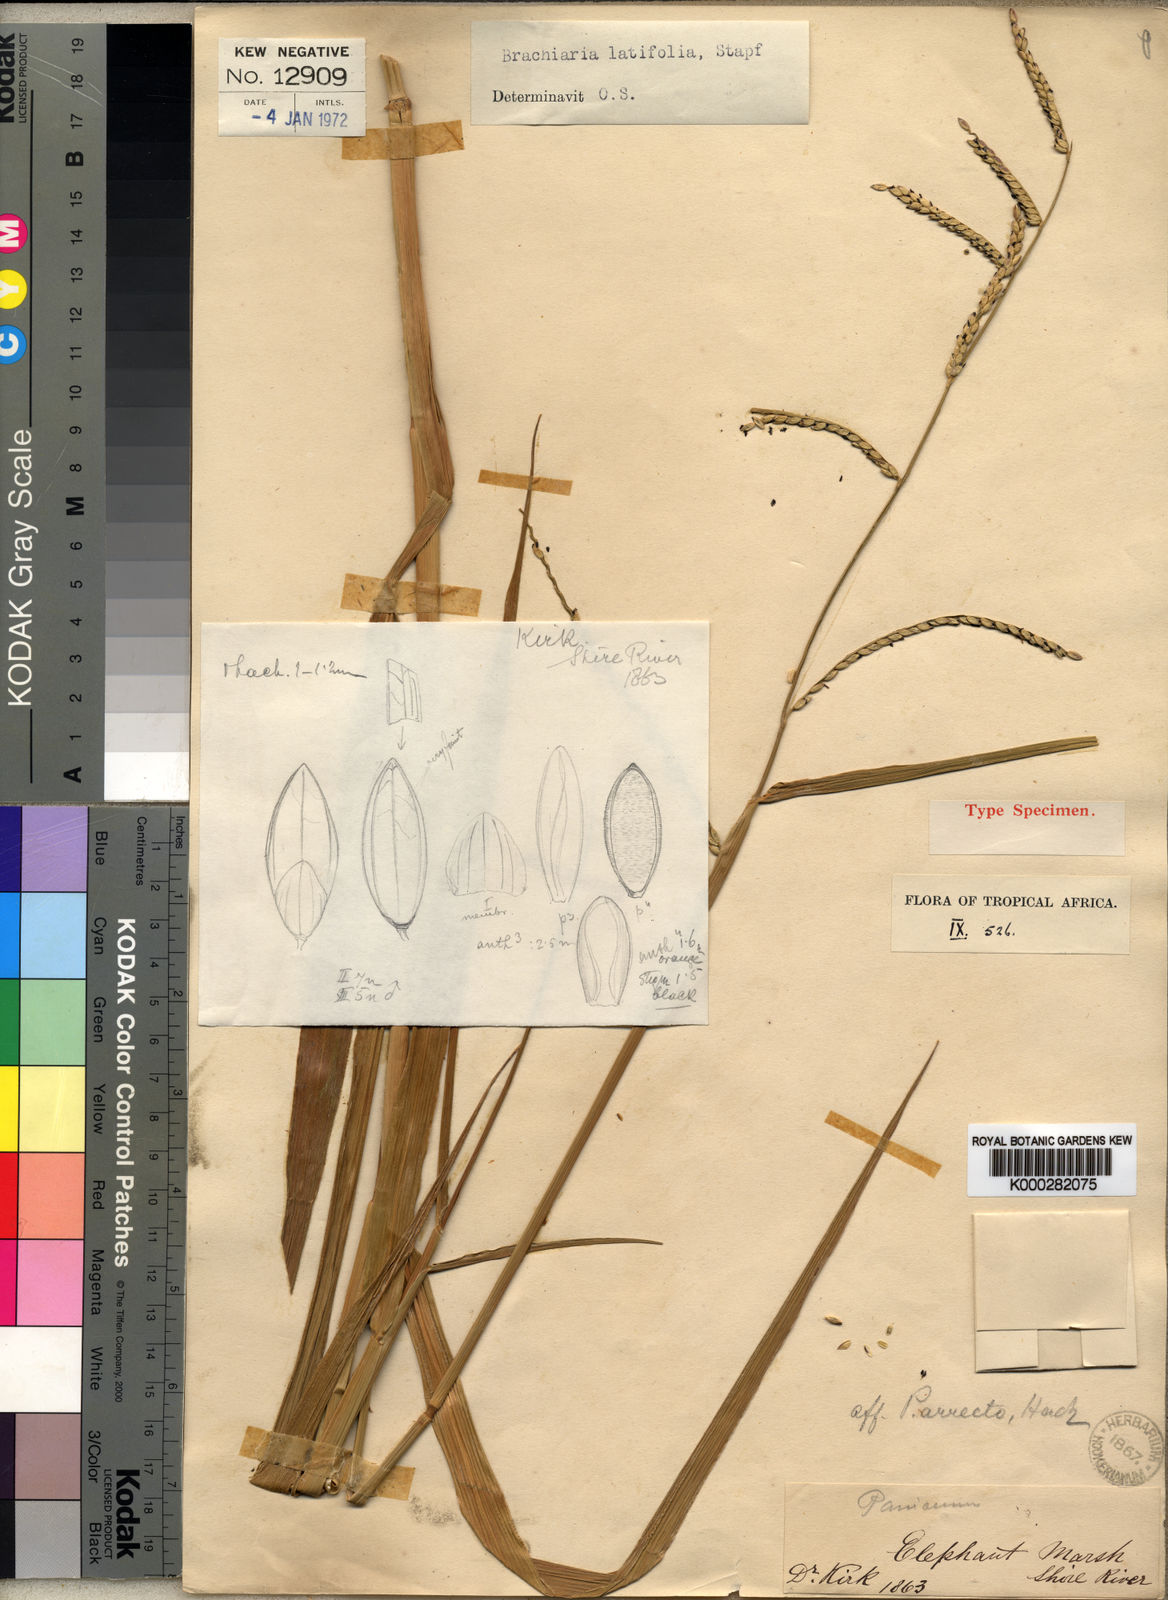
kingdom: Plantae
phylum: Tracheophyta
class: Liliopsida
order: Poales
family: Poaceae
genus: Urochloa
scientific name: Urochloa arrecta
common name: African signalgrass
